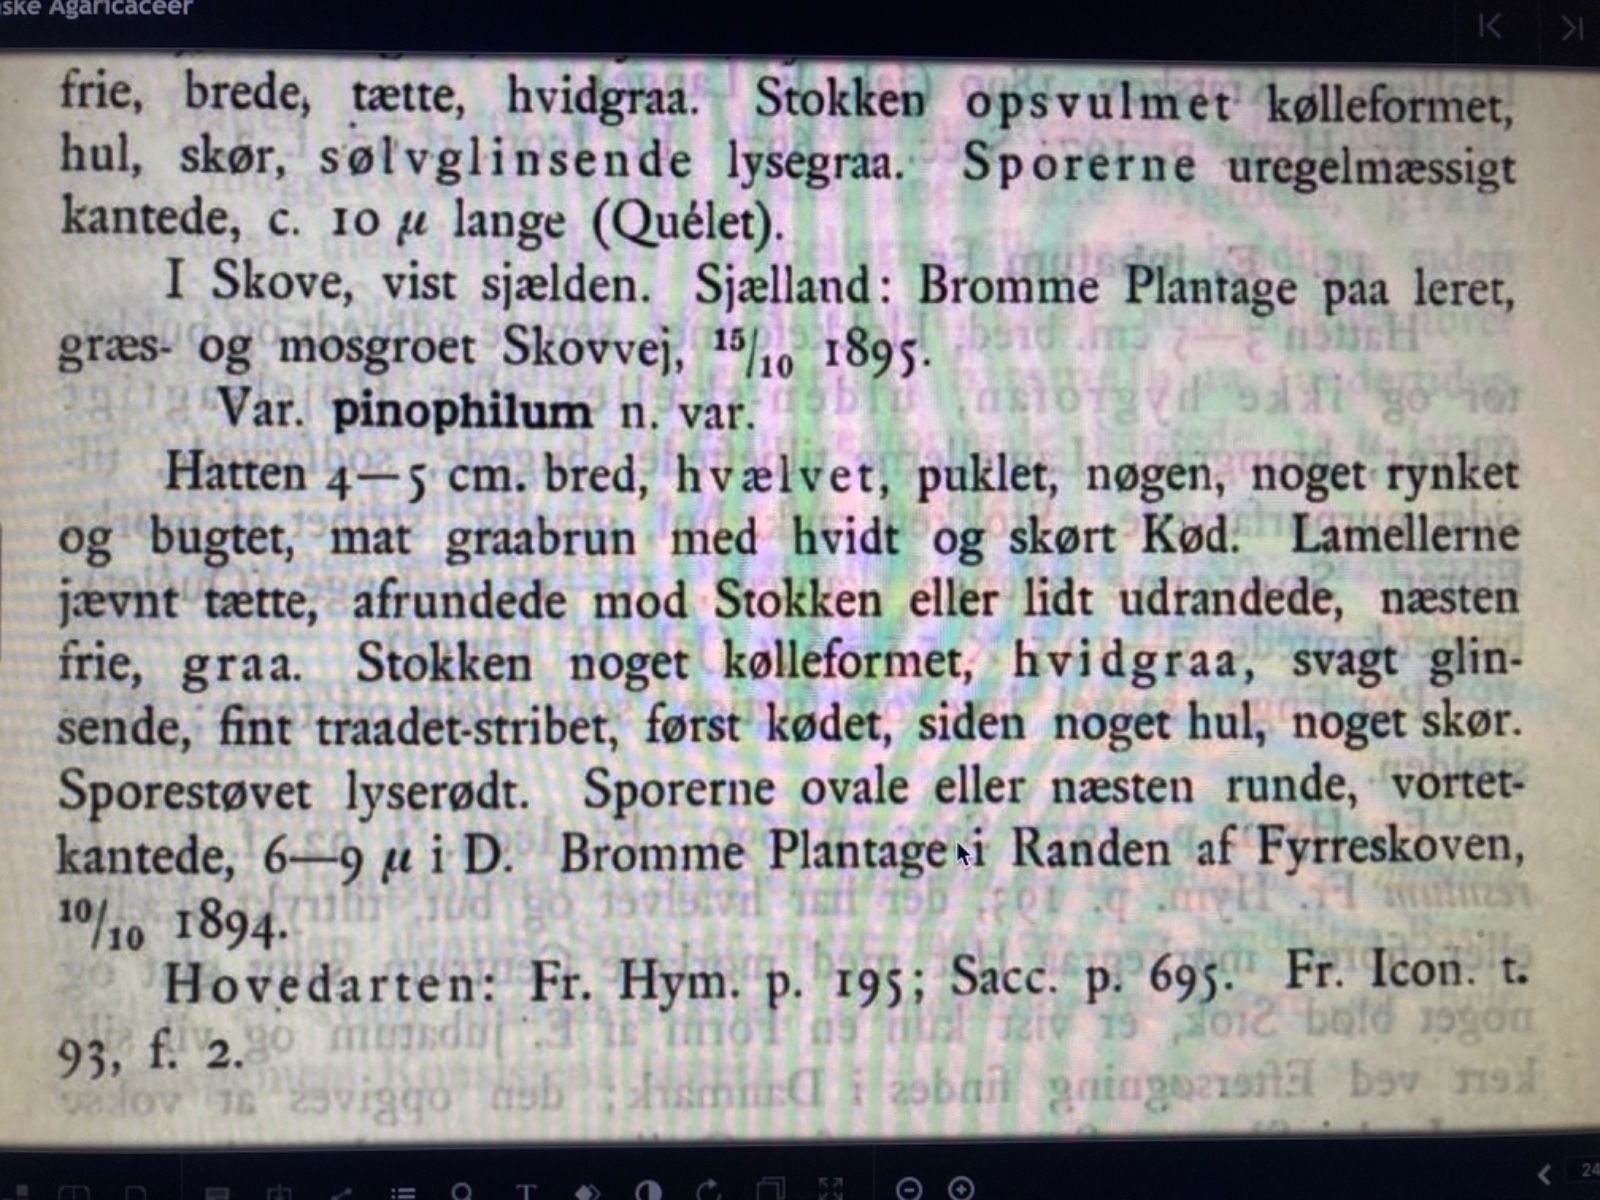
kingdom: Fungi
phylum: Basidiomycota
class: Agaricomycetes
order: Agaricales
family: Entolomataceae
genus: Entocybe
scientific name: Entocybe turbida
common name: plantage-rødblad
